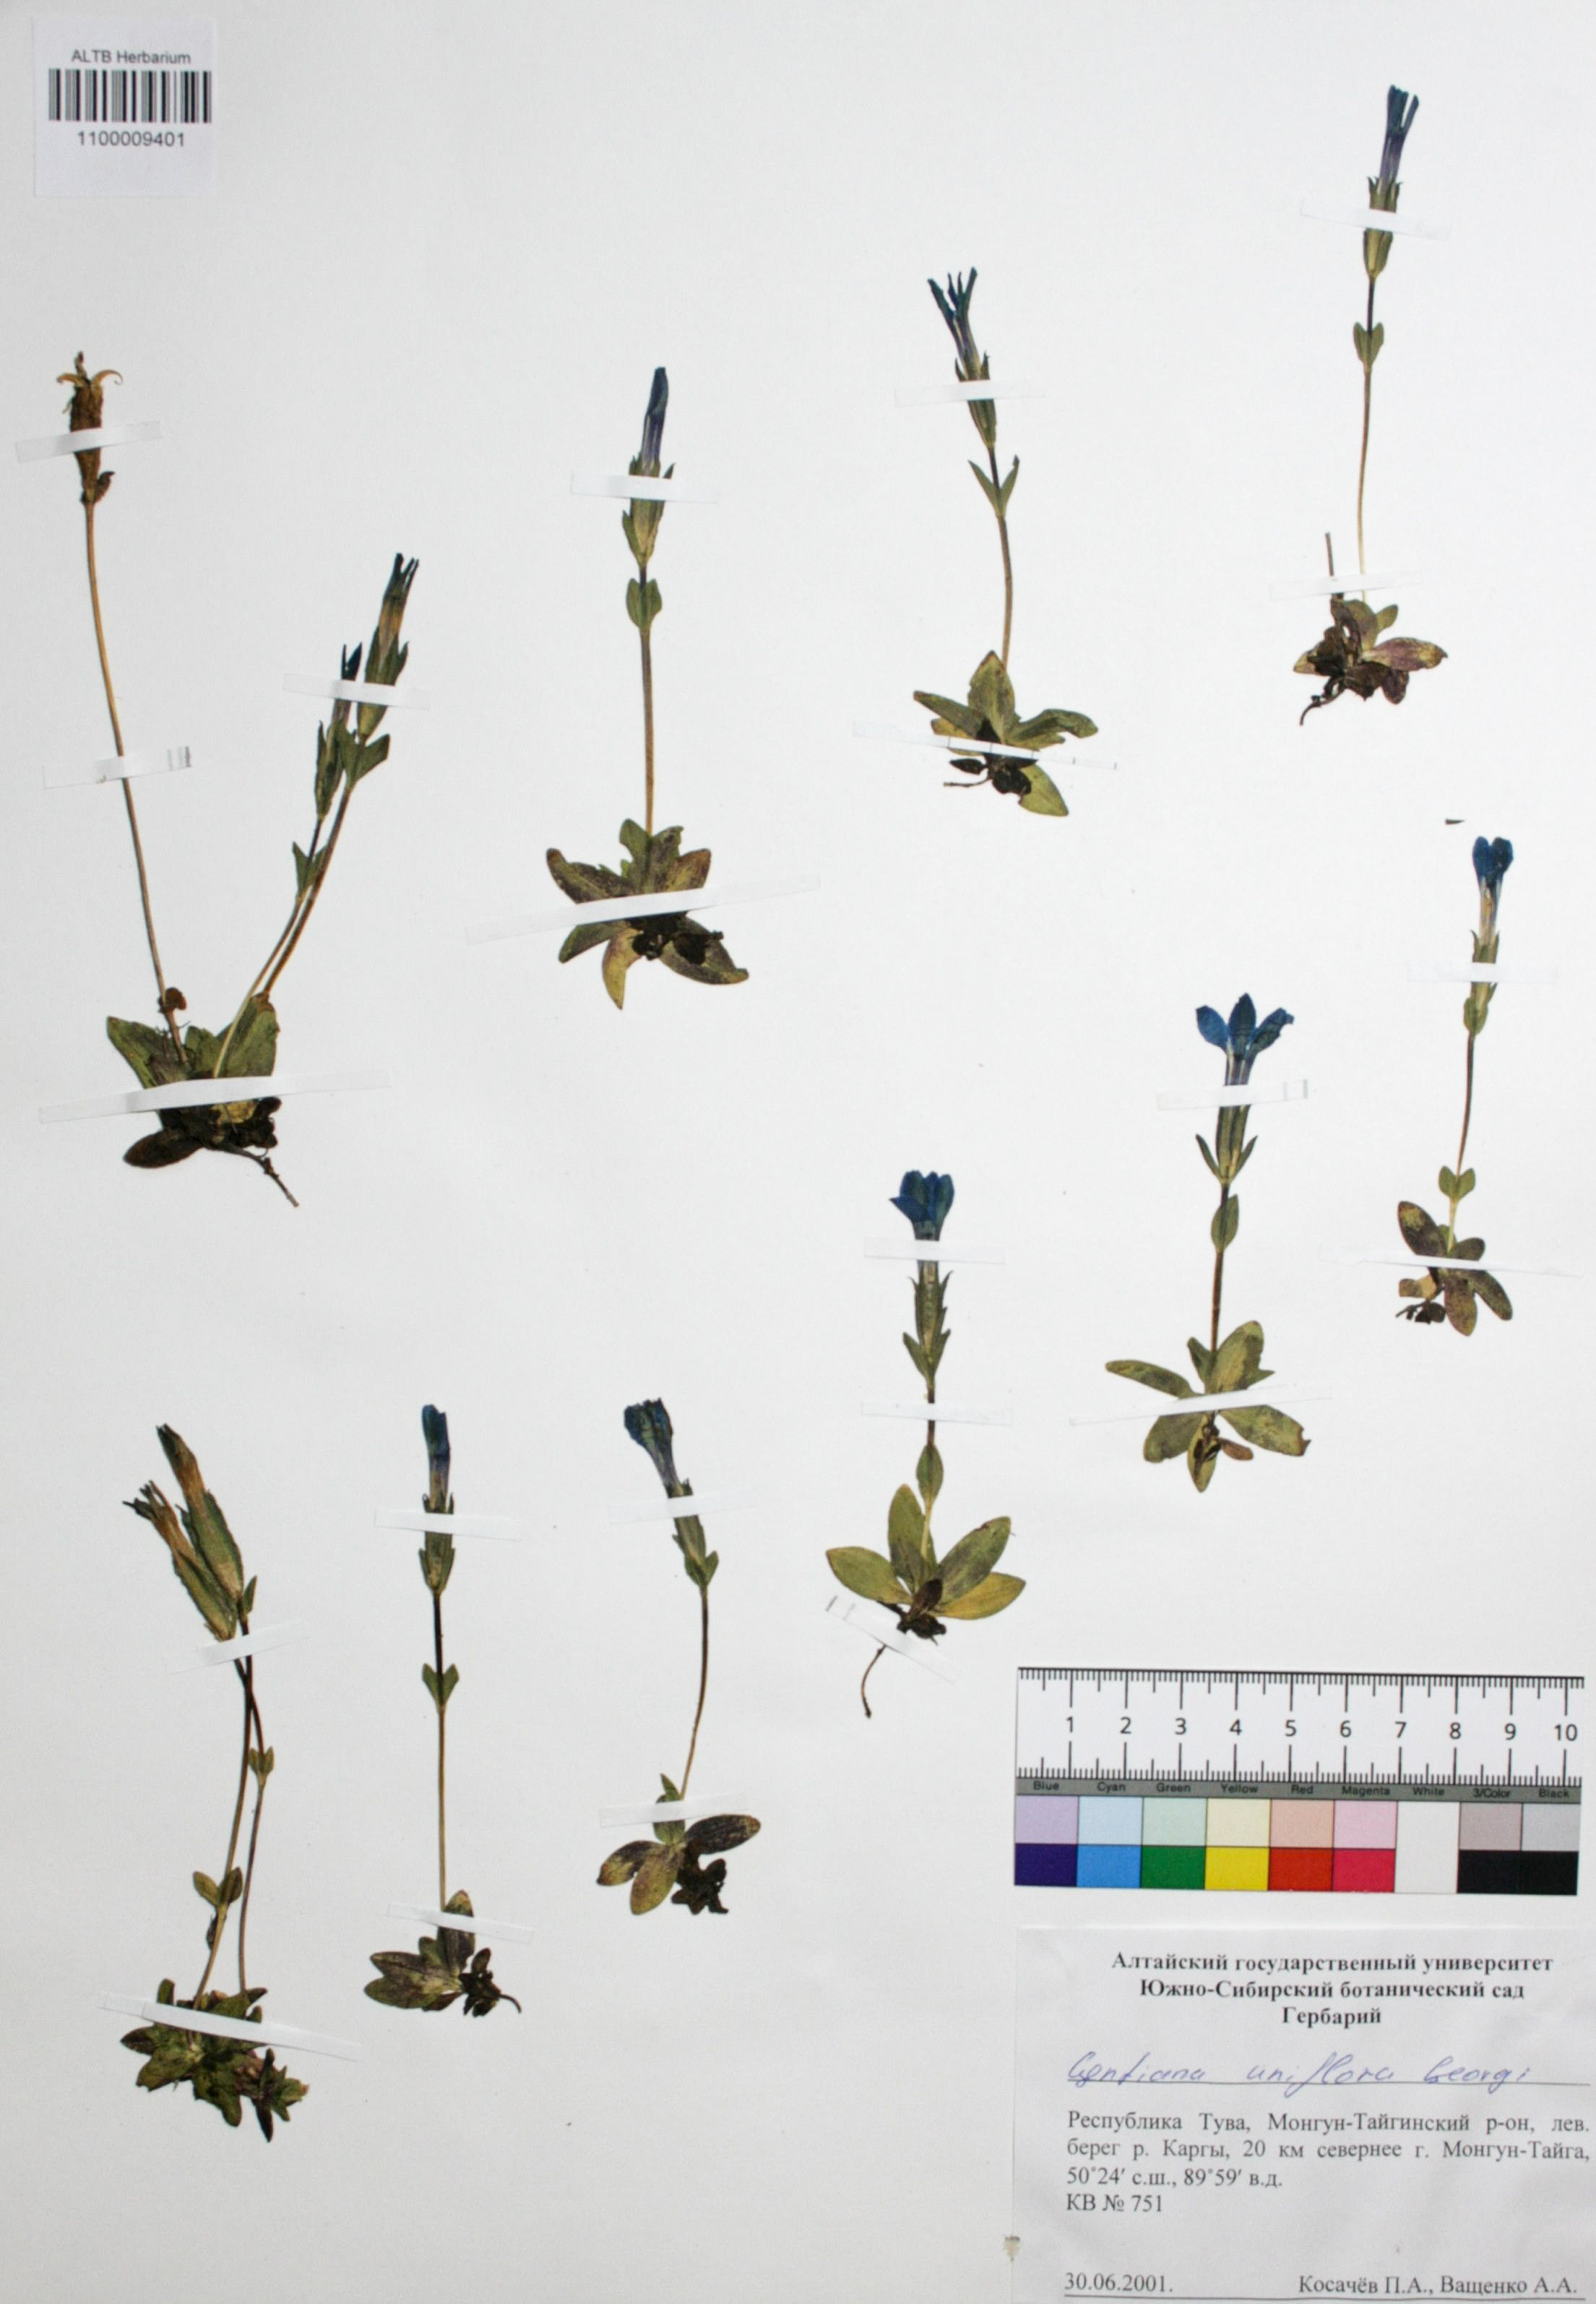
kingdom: Plantae
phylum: Tracheophyta
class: Magnoliopsida
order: Gentianales
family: Gentianaceae
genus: Gentiana
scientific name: Gentiana uniflora
